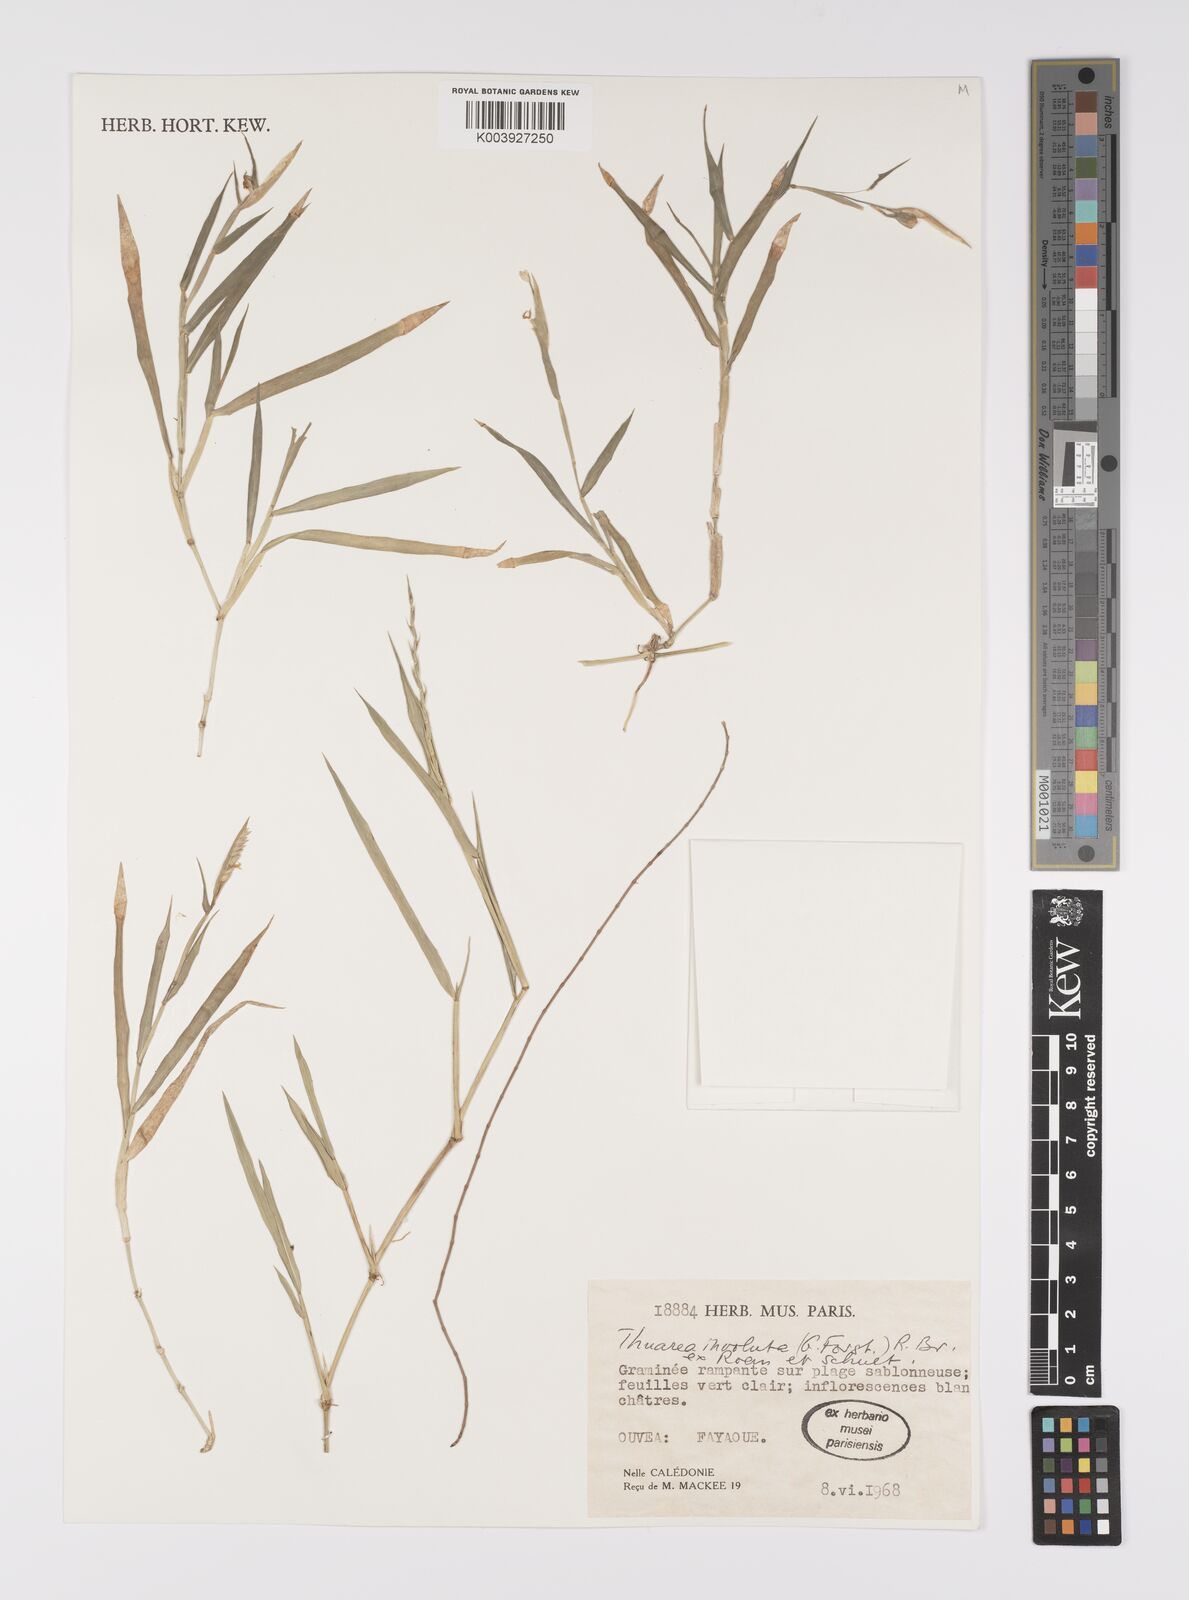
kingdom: Plantae
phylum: Tracheophyta
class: Liliopsida
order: Poales
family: Poaceae
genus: Thuarea
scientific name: Thuarea involuta
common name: Tropical beach grass
